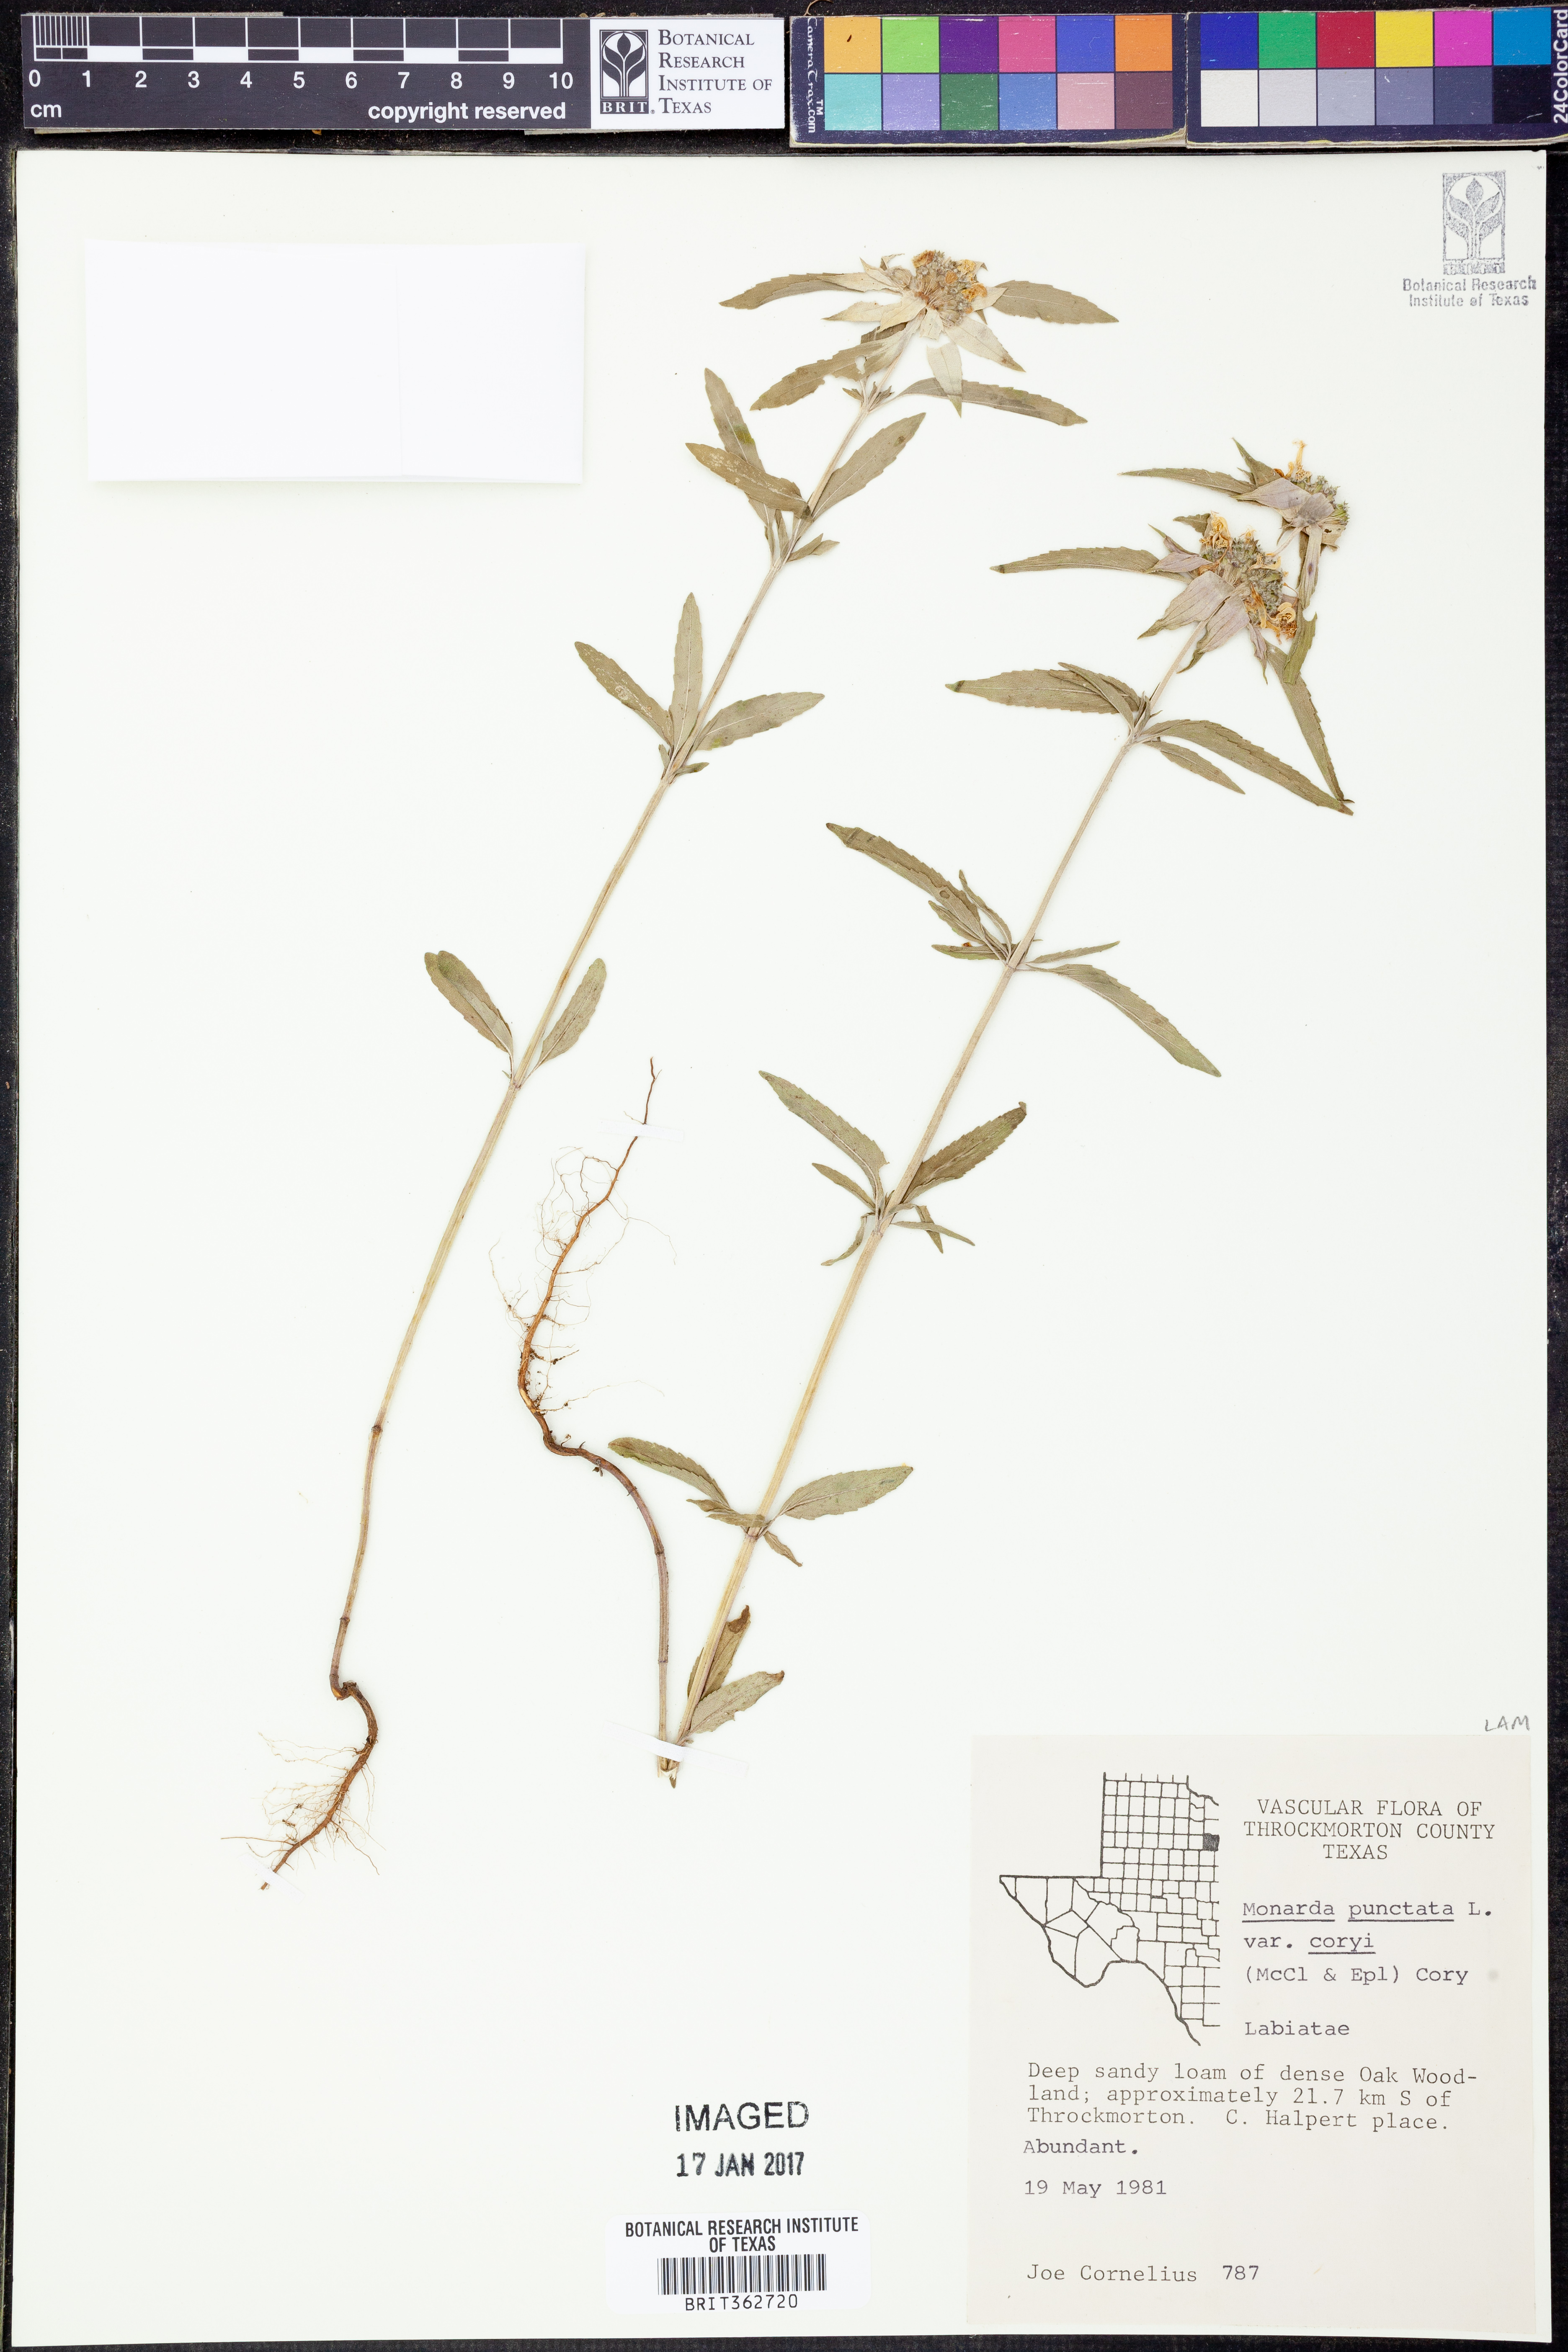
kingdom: Plantae
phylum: Tracheophyta
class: Magnoliopsida
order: Lamiales
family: Lamiaceae
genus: Monarda
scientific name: Monarda punctata
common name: Dotted monarda
